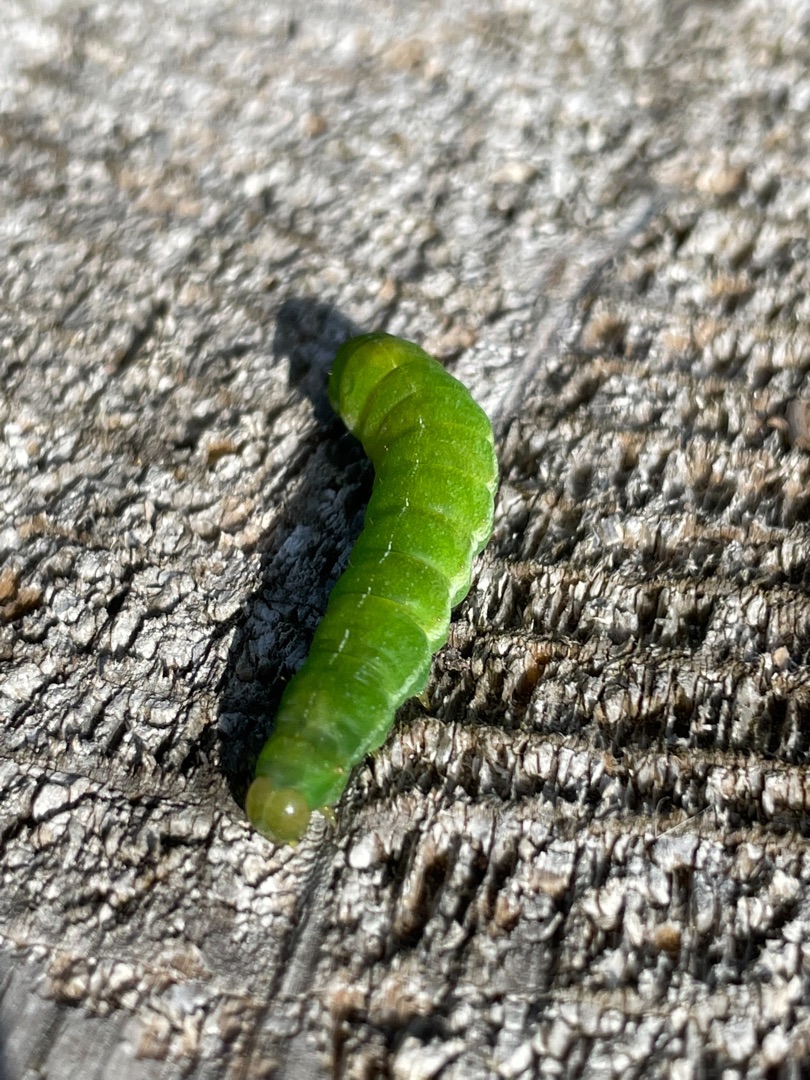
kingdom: Animalia
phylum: Arthropoda
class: Insecta
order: Lepidoptera
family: Noctuidae
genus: Phlogophora
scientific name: Phlogophora meticulosa
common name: Agatugle
